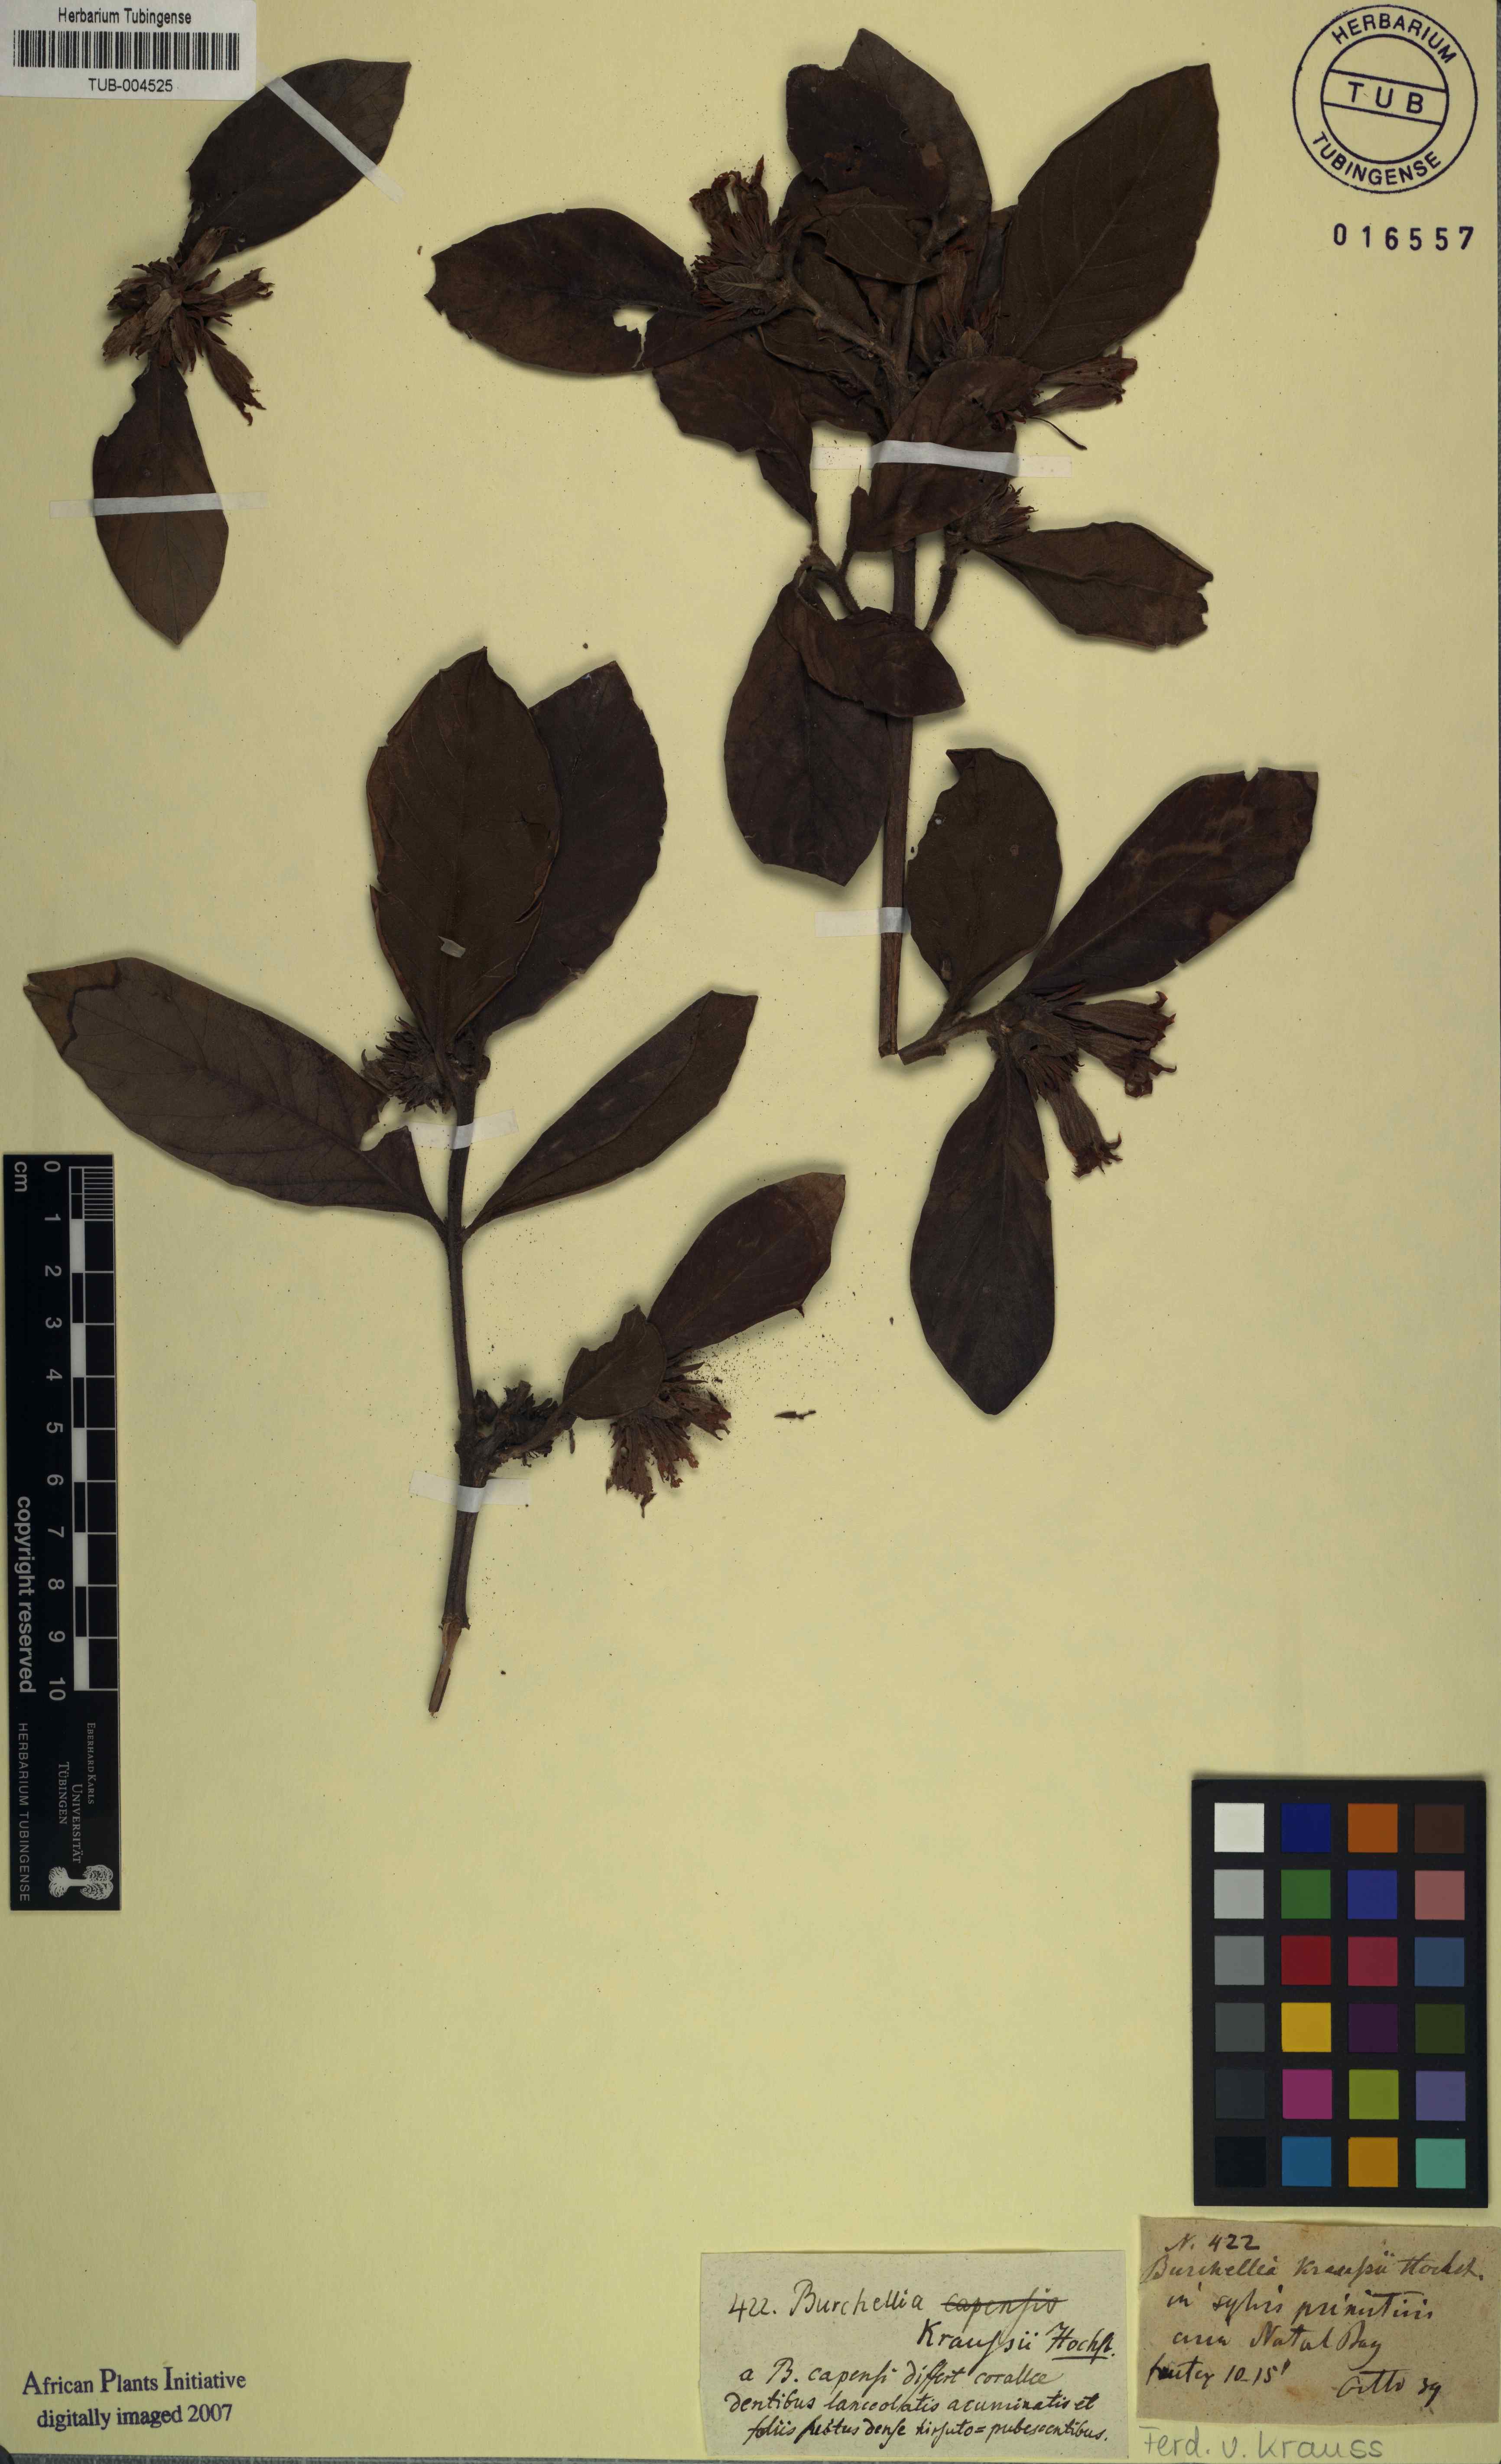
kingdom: Plantae
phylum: Tracheophyta
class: Magnoliopsida
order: Gentianales
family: Rubiaceae
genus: Burchellia
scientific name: Burchellia bubalina
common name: Wild pomegranate
